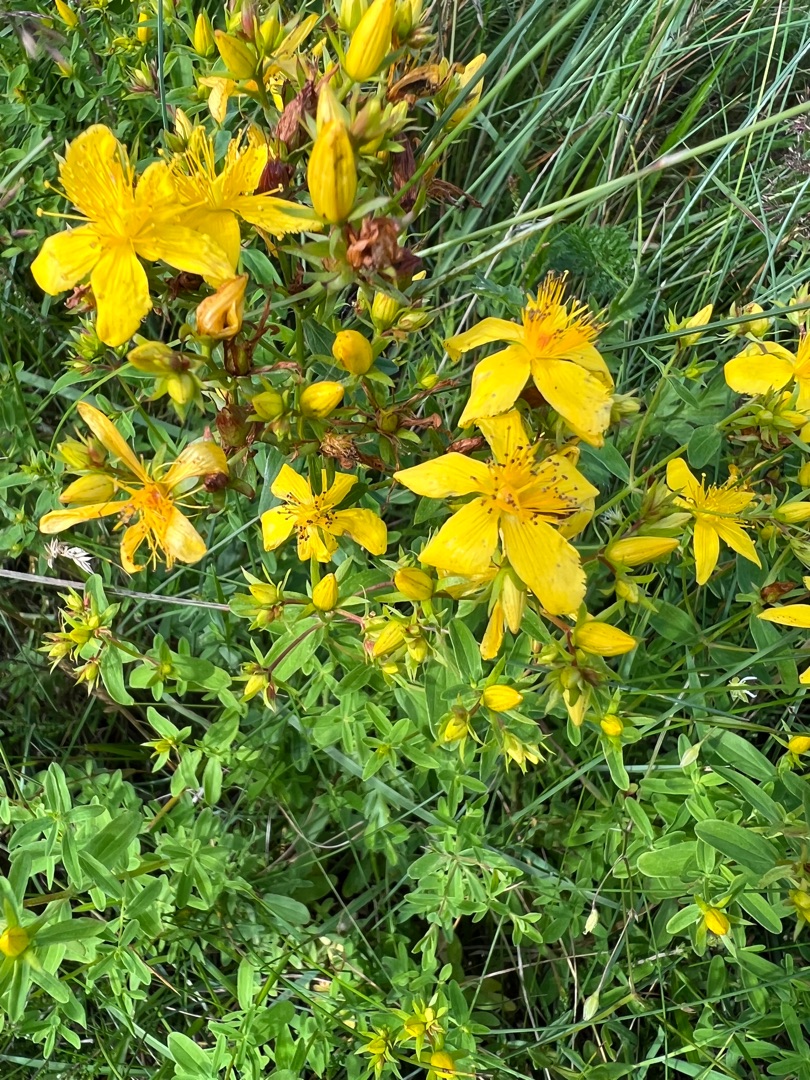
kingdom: Plantae
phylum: Tracheophyta
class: Magnoliopsida
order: Malpighiales
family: Hypericaceae
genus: Hypericum
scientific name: Hypericum perforatum
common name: Prikbladet perikon
